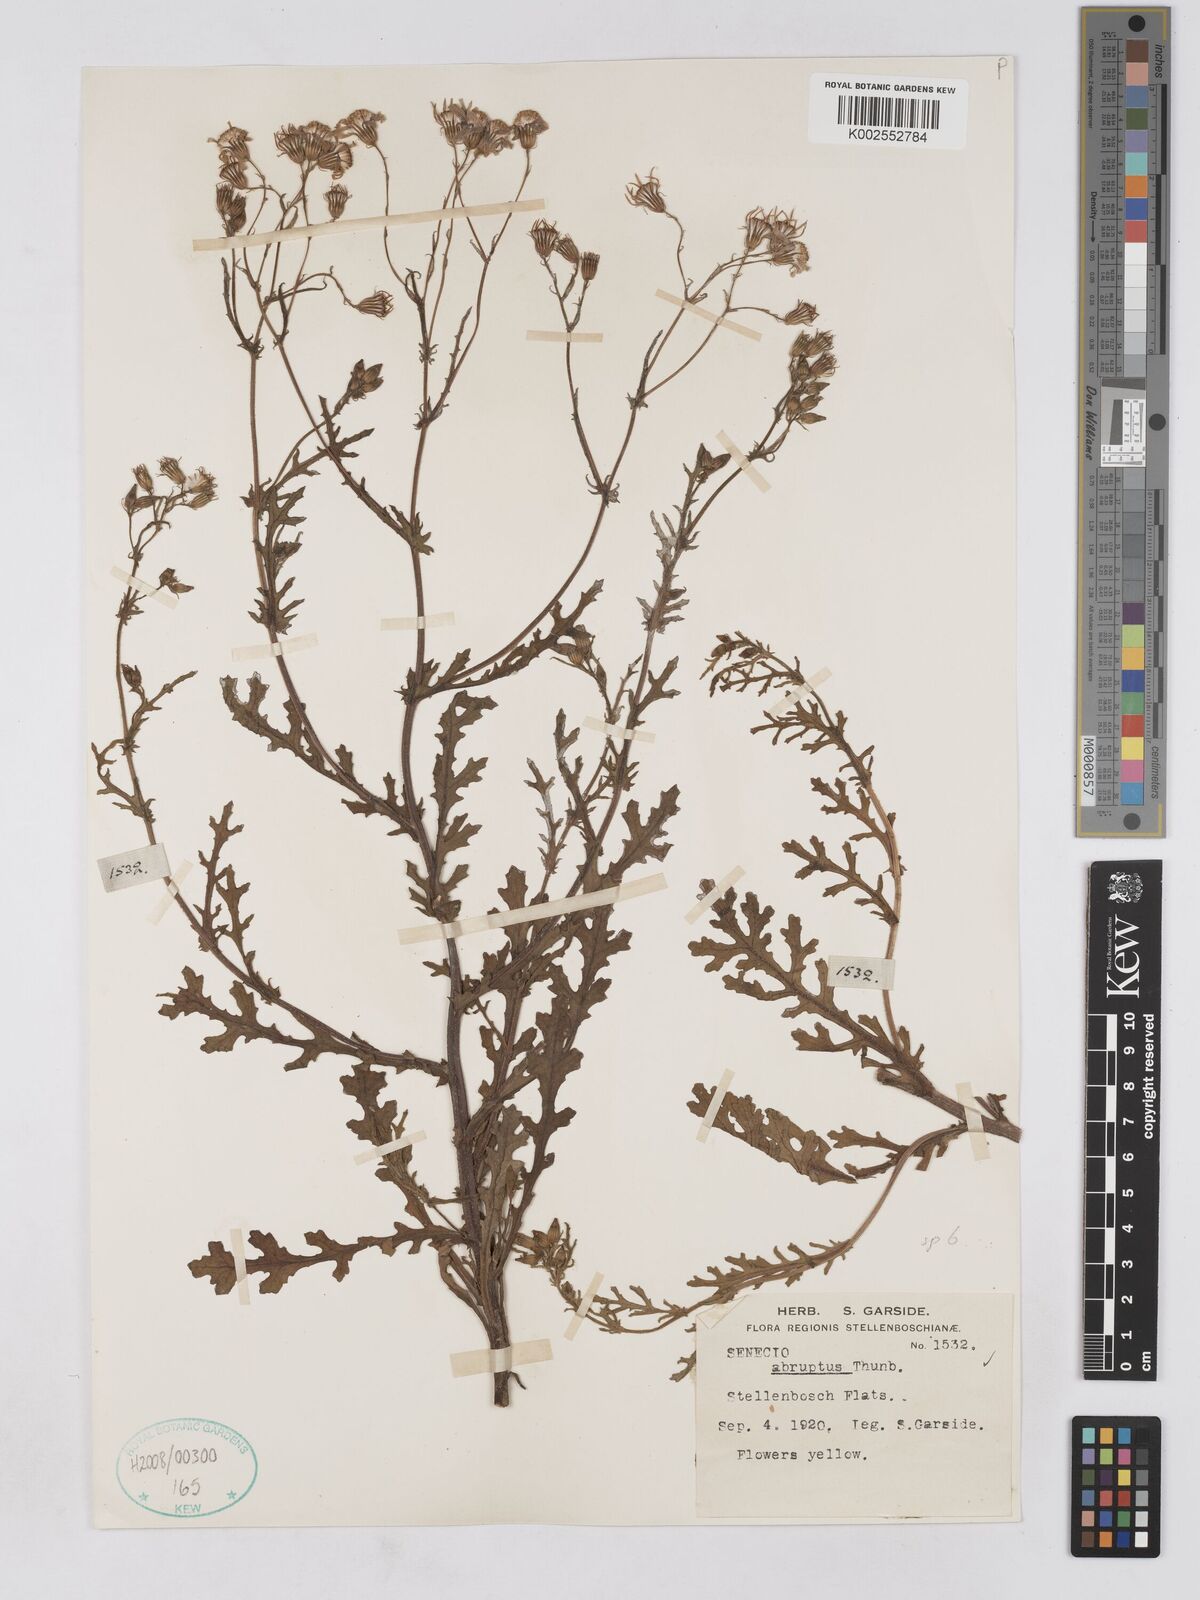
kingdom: Plantae
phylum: Tracheophyta
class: Magnoliopsida
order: Asterales
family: Asteraceae
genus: Senecio
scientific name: Senecio abruptus
